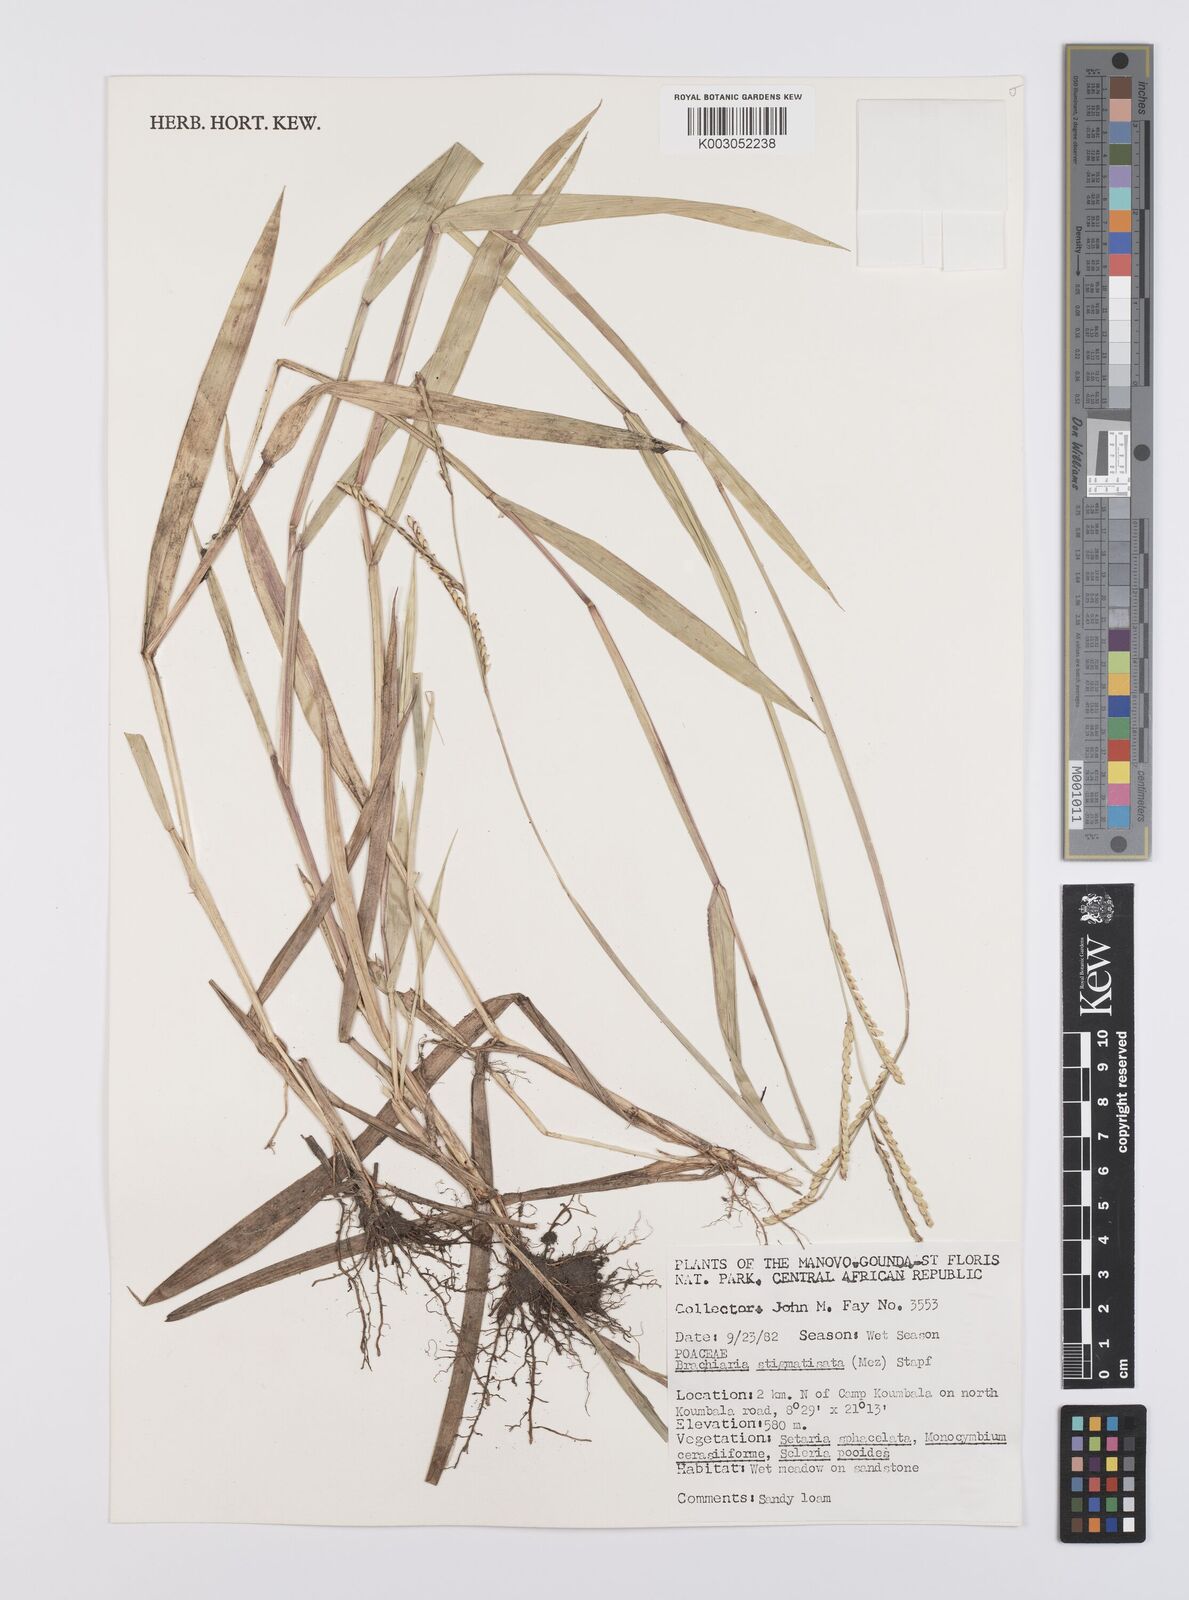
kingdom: Plantae
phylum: Tracheophyta
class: Liliopsida
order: Poales
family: Poaceae
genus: Urochloa
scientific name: Urochloa stigmatisata
